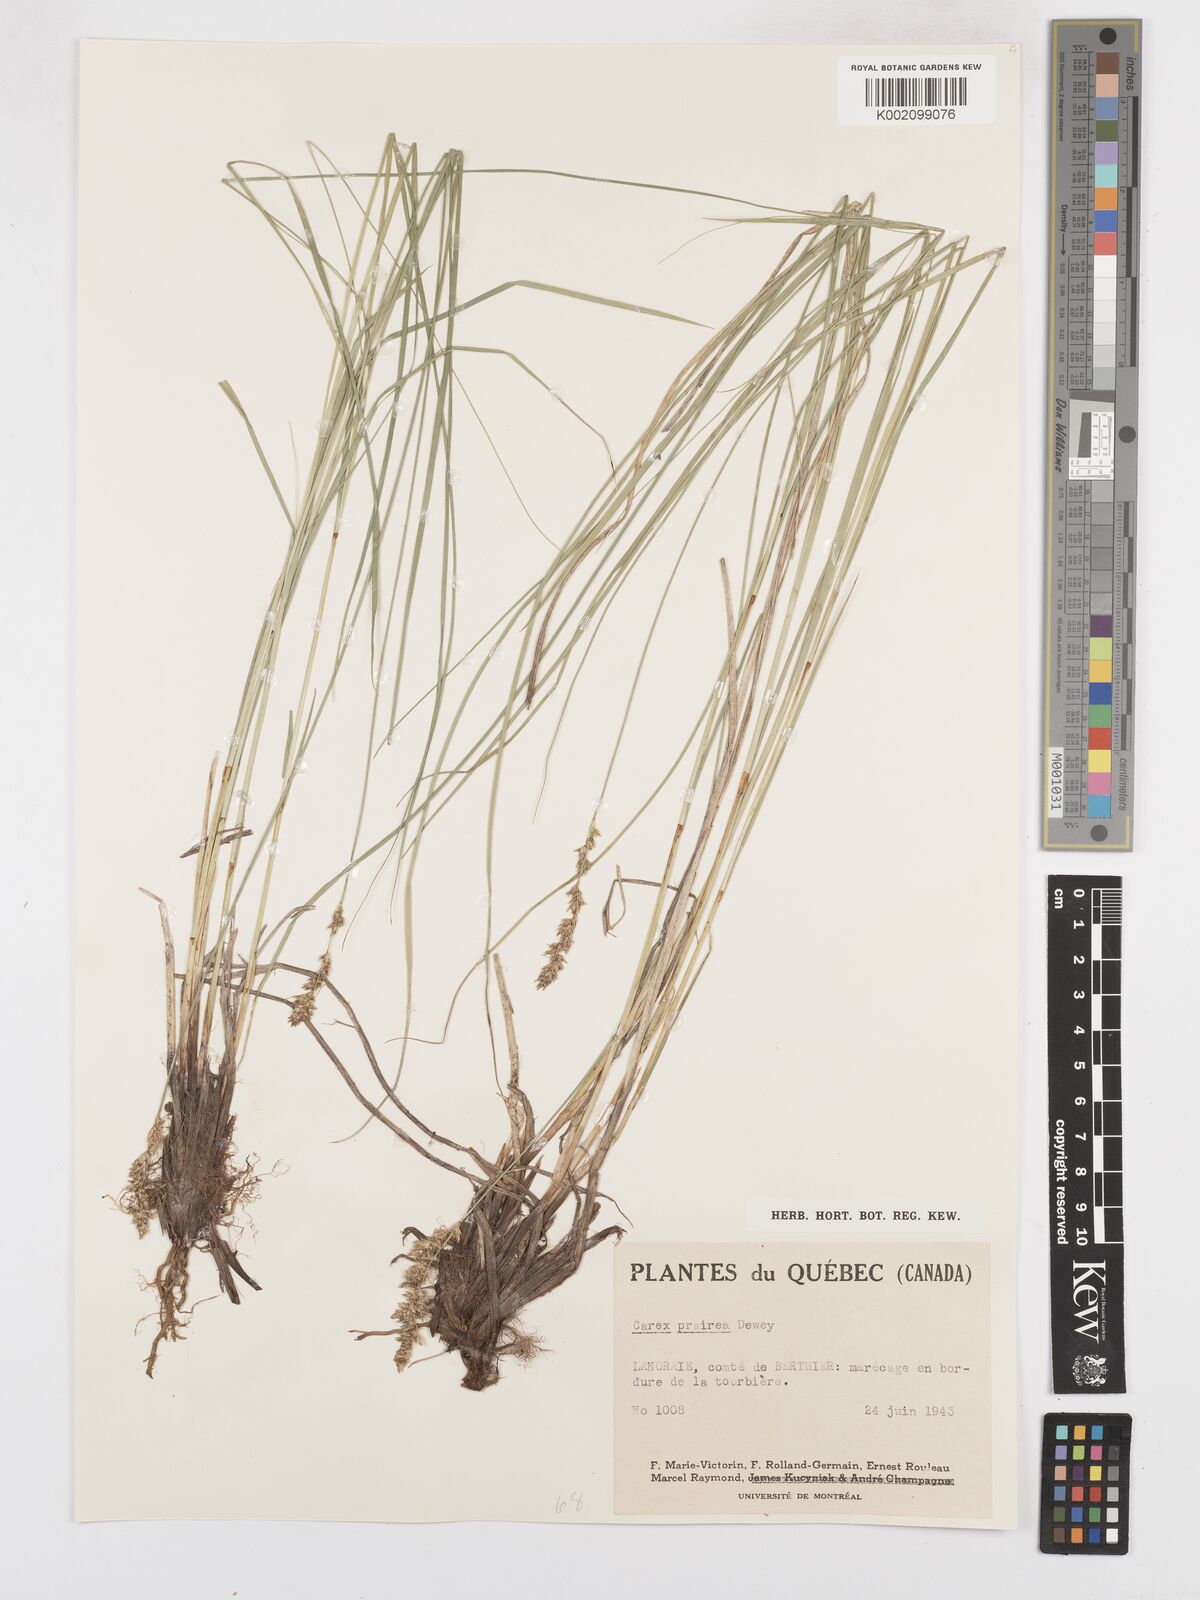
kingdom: Plantae
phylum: Tracheophyta
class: Liliopsida
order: Poales
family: Cyperaceae
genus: Carex
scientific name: Carex prairea
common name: Prairie sedge
